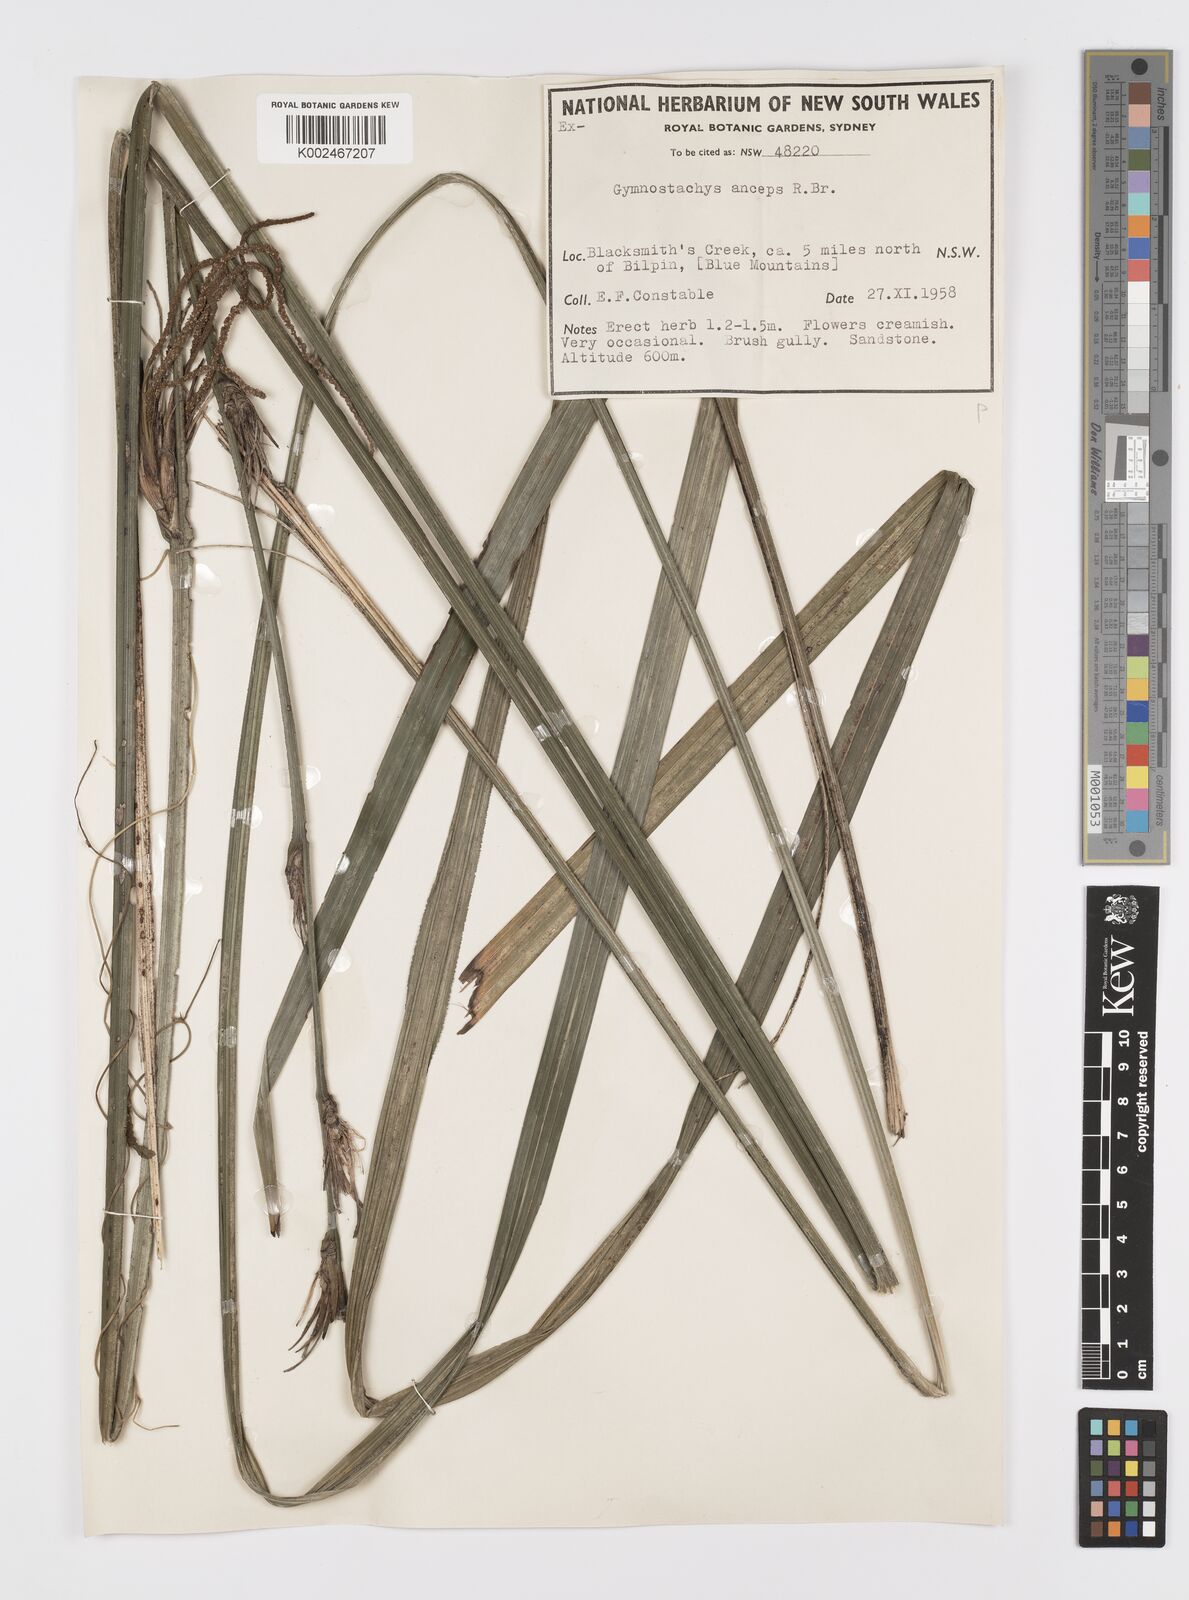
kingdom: Plantae
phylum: Tracheophyta
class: Liliopsida
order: Alismatales
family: Araceae
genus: Gymnostachys
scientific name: Gymnostachys anceps
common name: Settler's-flax
